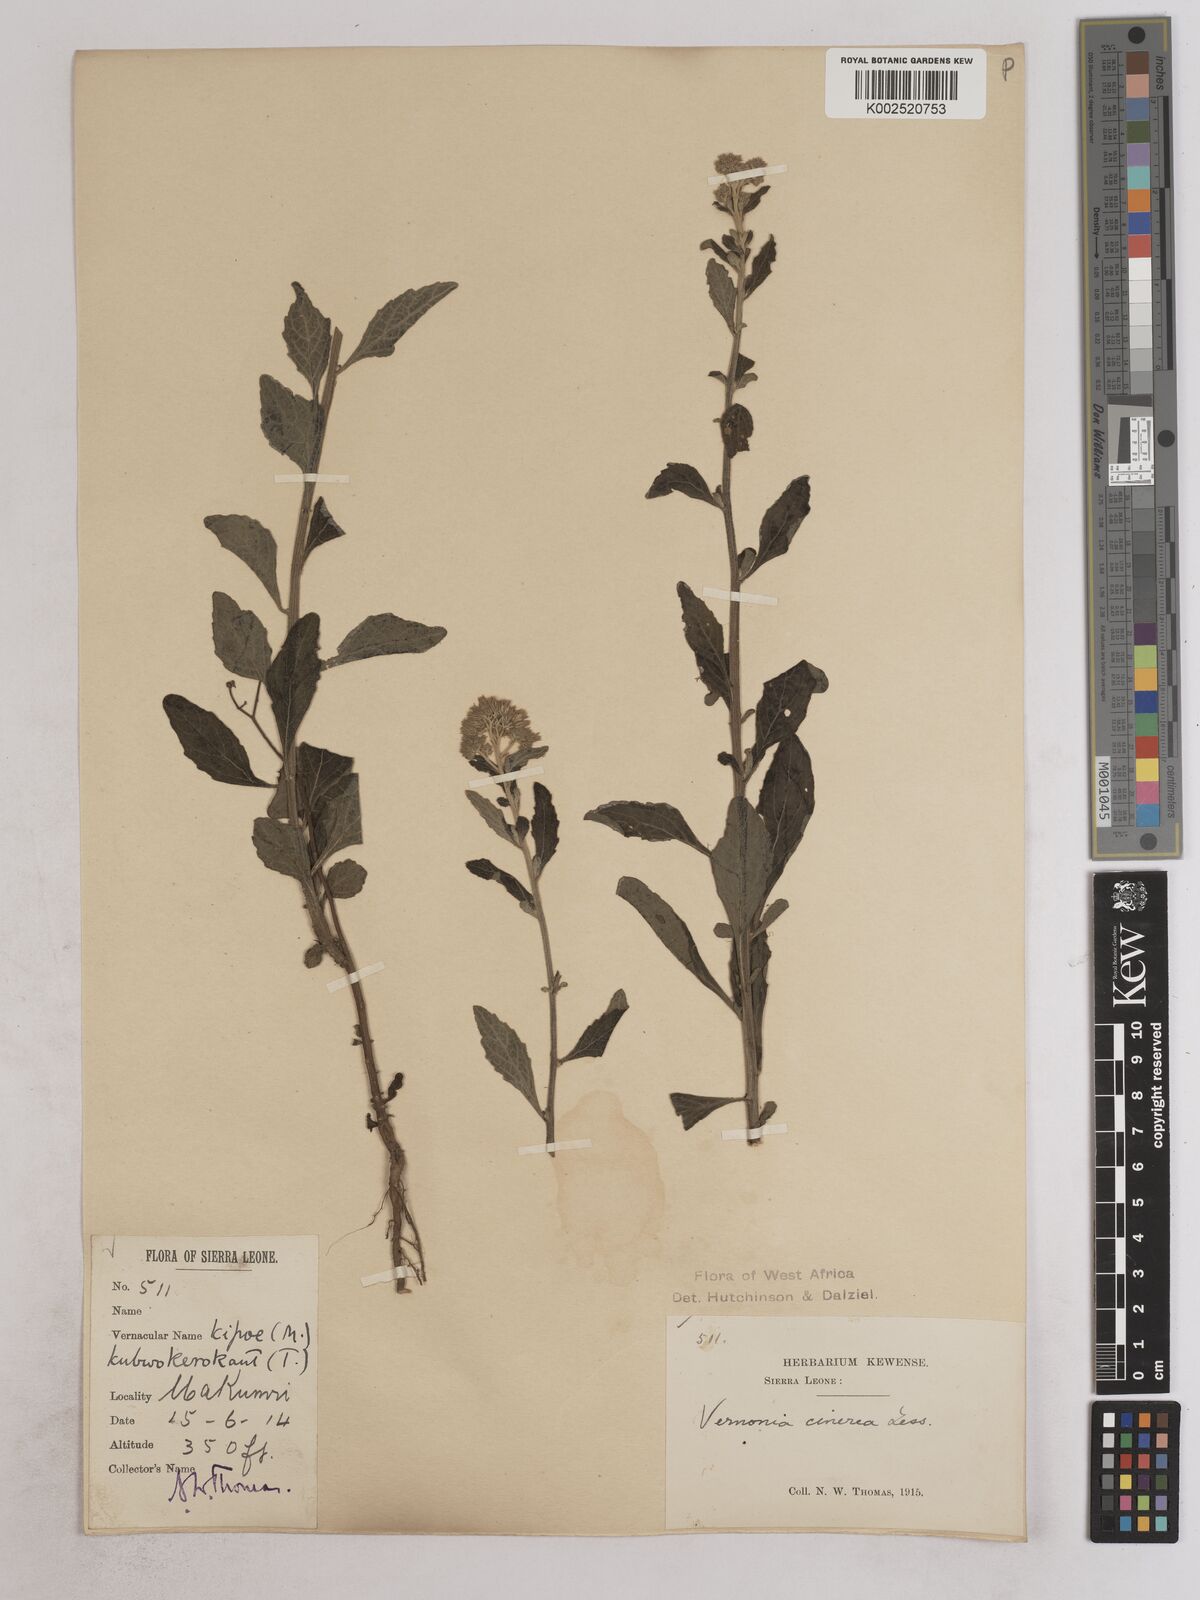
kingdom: Plantae
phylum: Tracheophyta
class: Magnoliopsida
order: Asterales
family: Asteraceae
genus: Cyanthillium
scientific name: Cyanthillium cinereum
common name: Little ironweed
